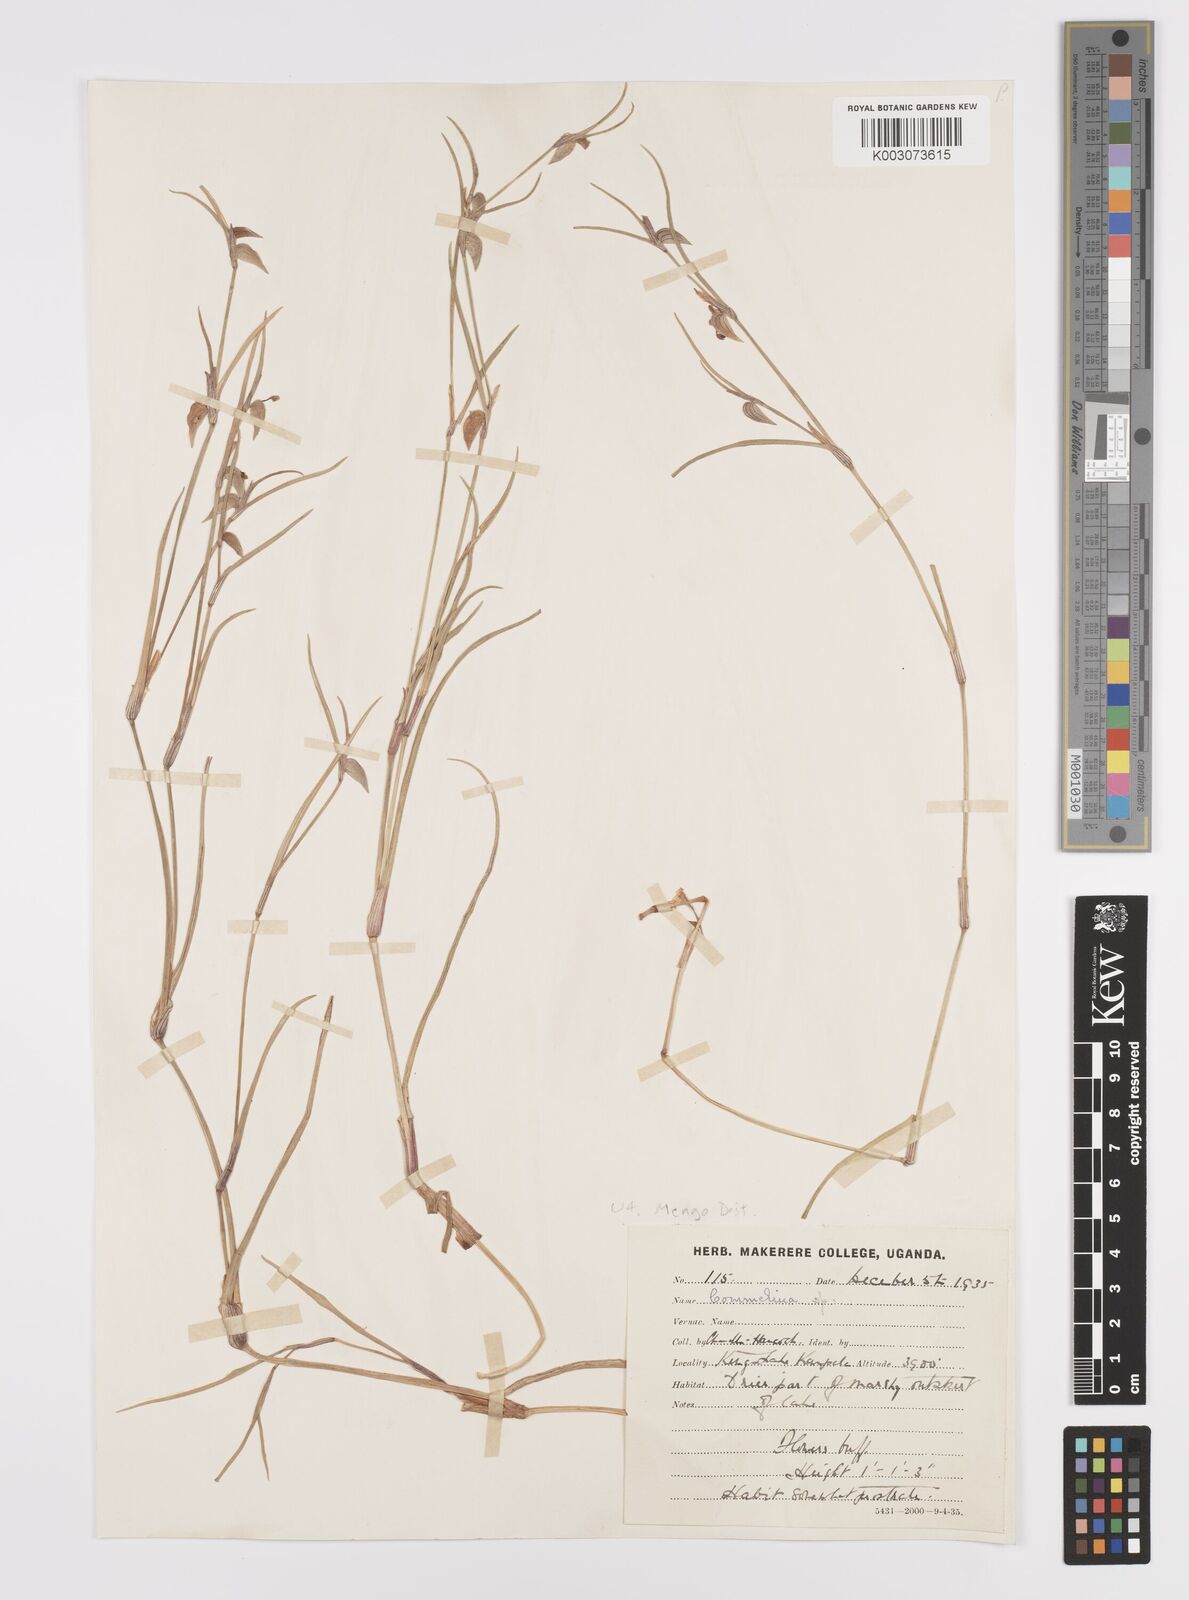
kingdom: Plantae
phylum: Tracheophyta
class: Liliopsida
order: Commelinales
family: Commelinaceae
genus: Commelina
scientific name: Commelina purpurea
